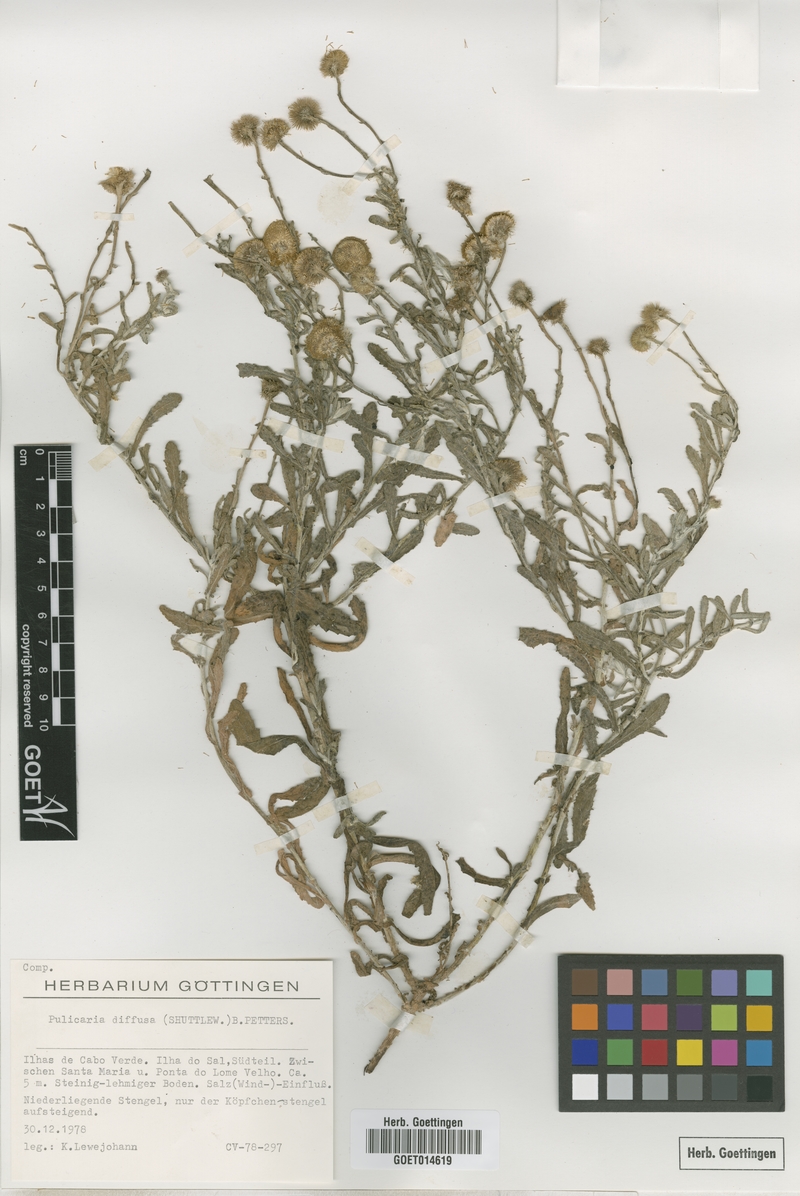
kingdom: Plantae
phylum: Tracheophyta
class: Magnoliopsida
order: Asterales
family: Asteraceae
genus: Pulicaria
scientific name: Pulicaria diffusa
